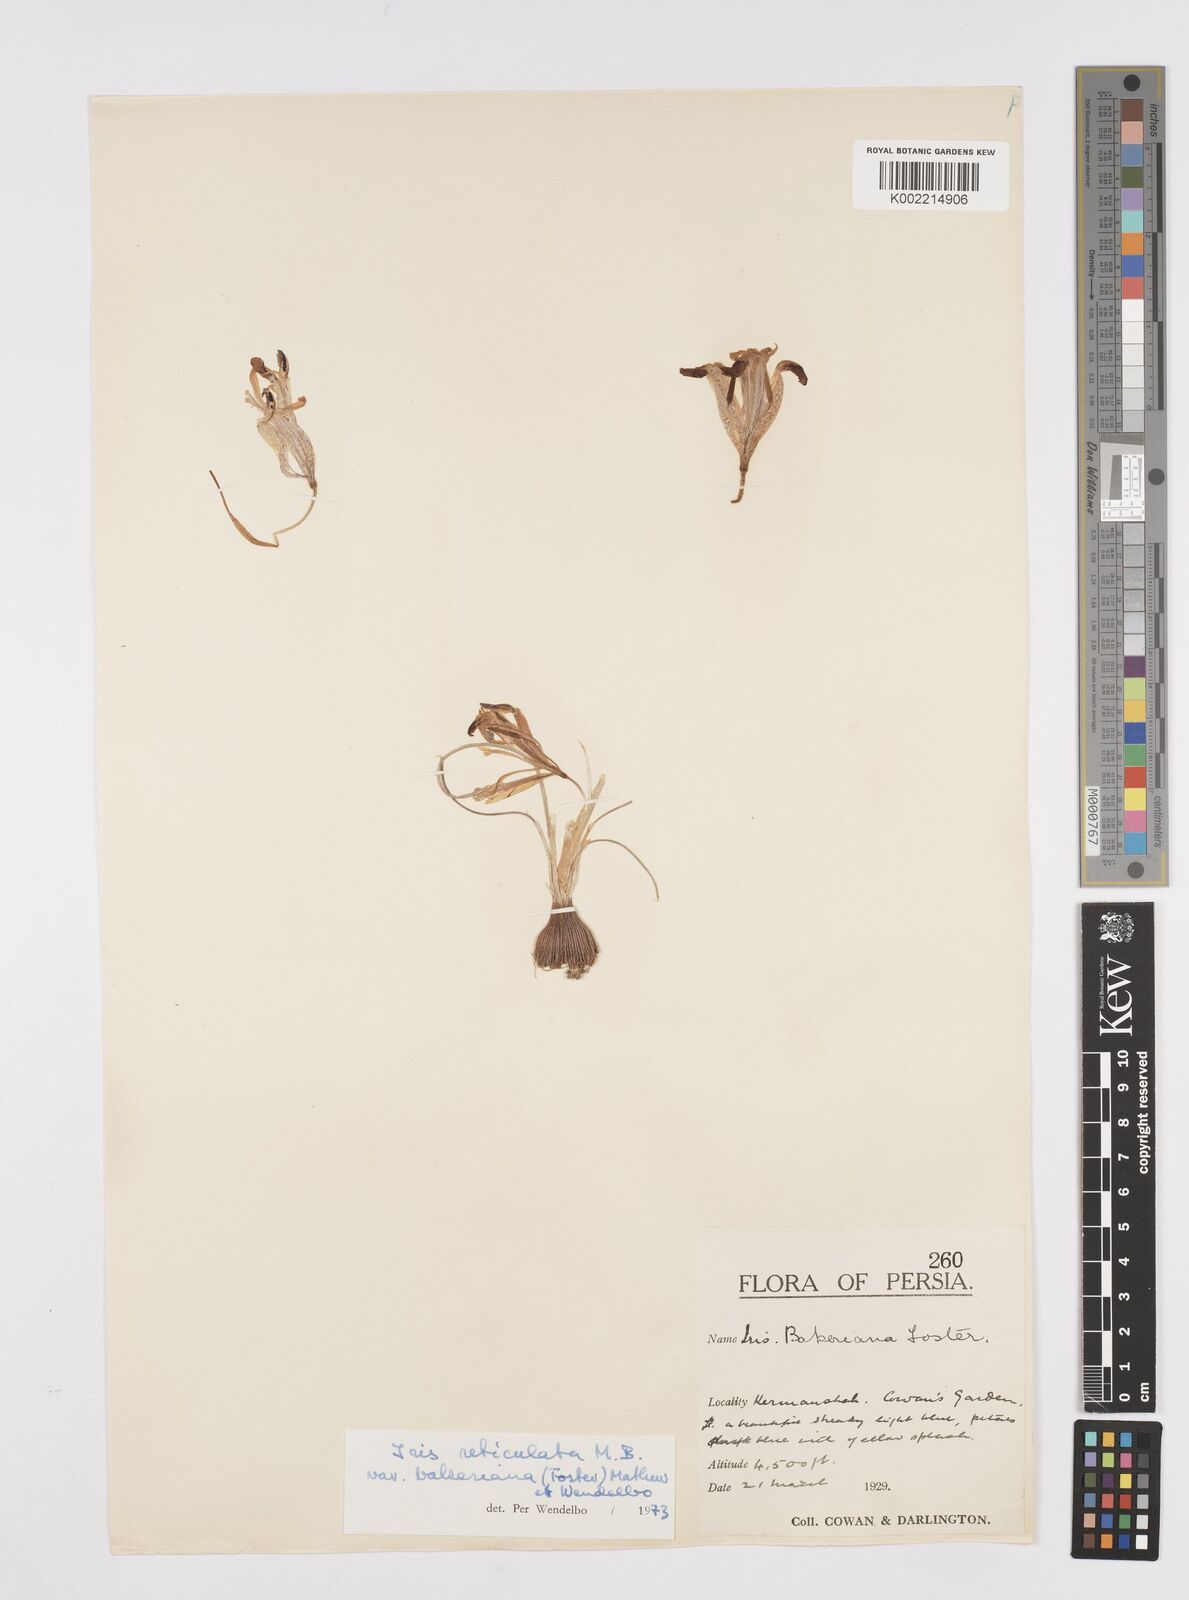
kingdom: Plantae
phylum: Tracheophyta
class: Liliopsida
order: Asparagales
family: Iridaceae
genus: Iris
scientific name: Iris reticulata
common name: Netted iris
